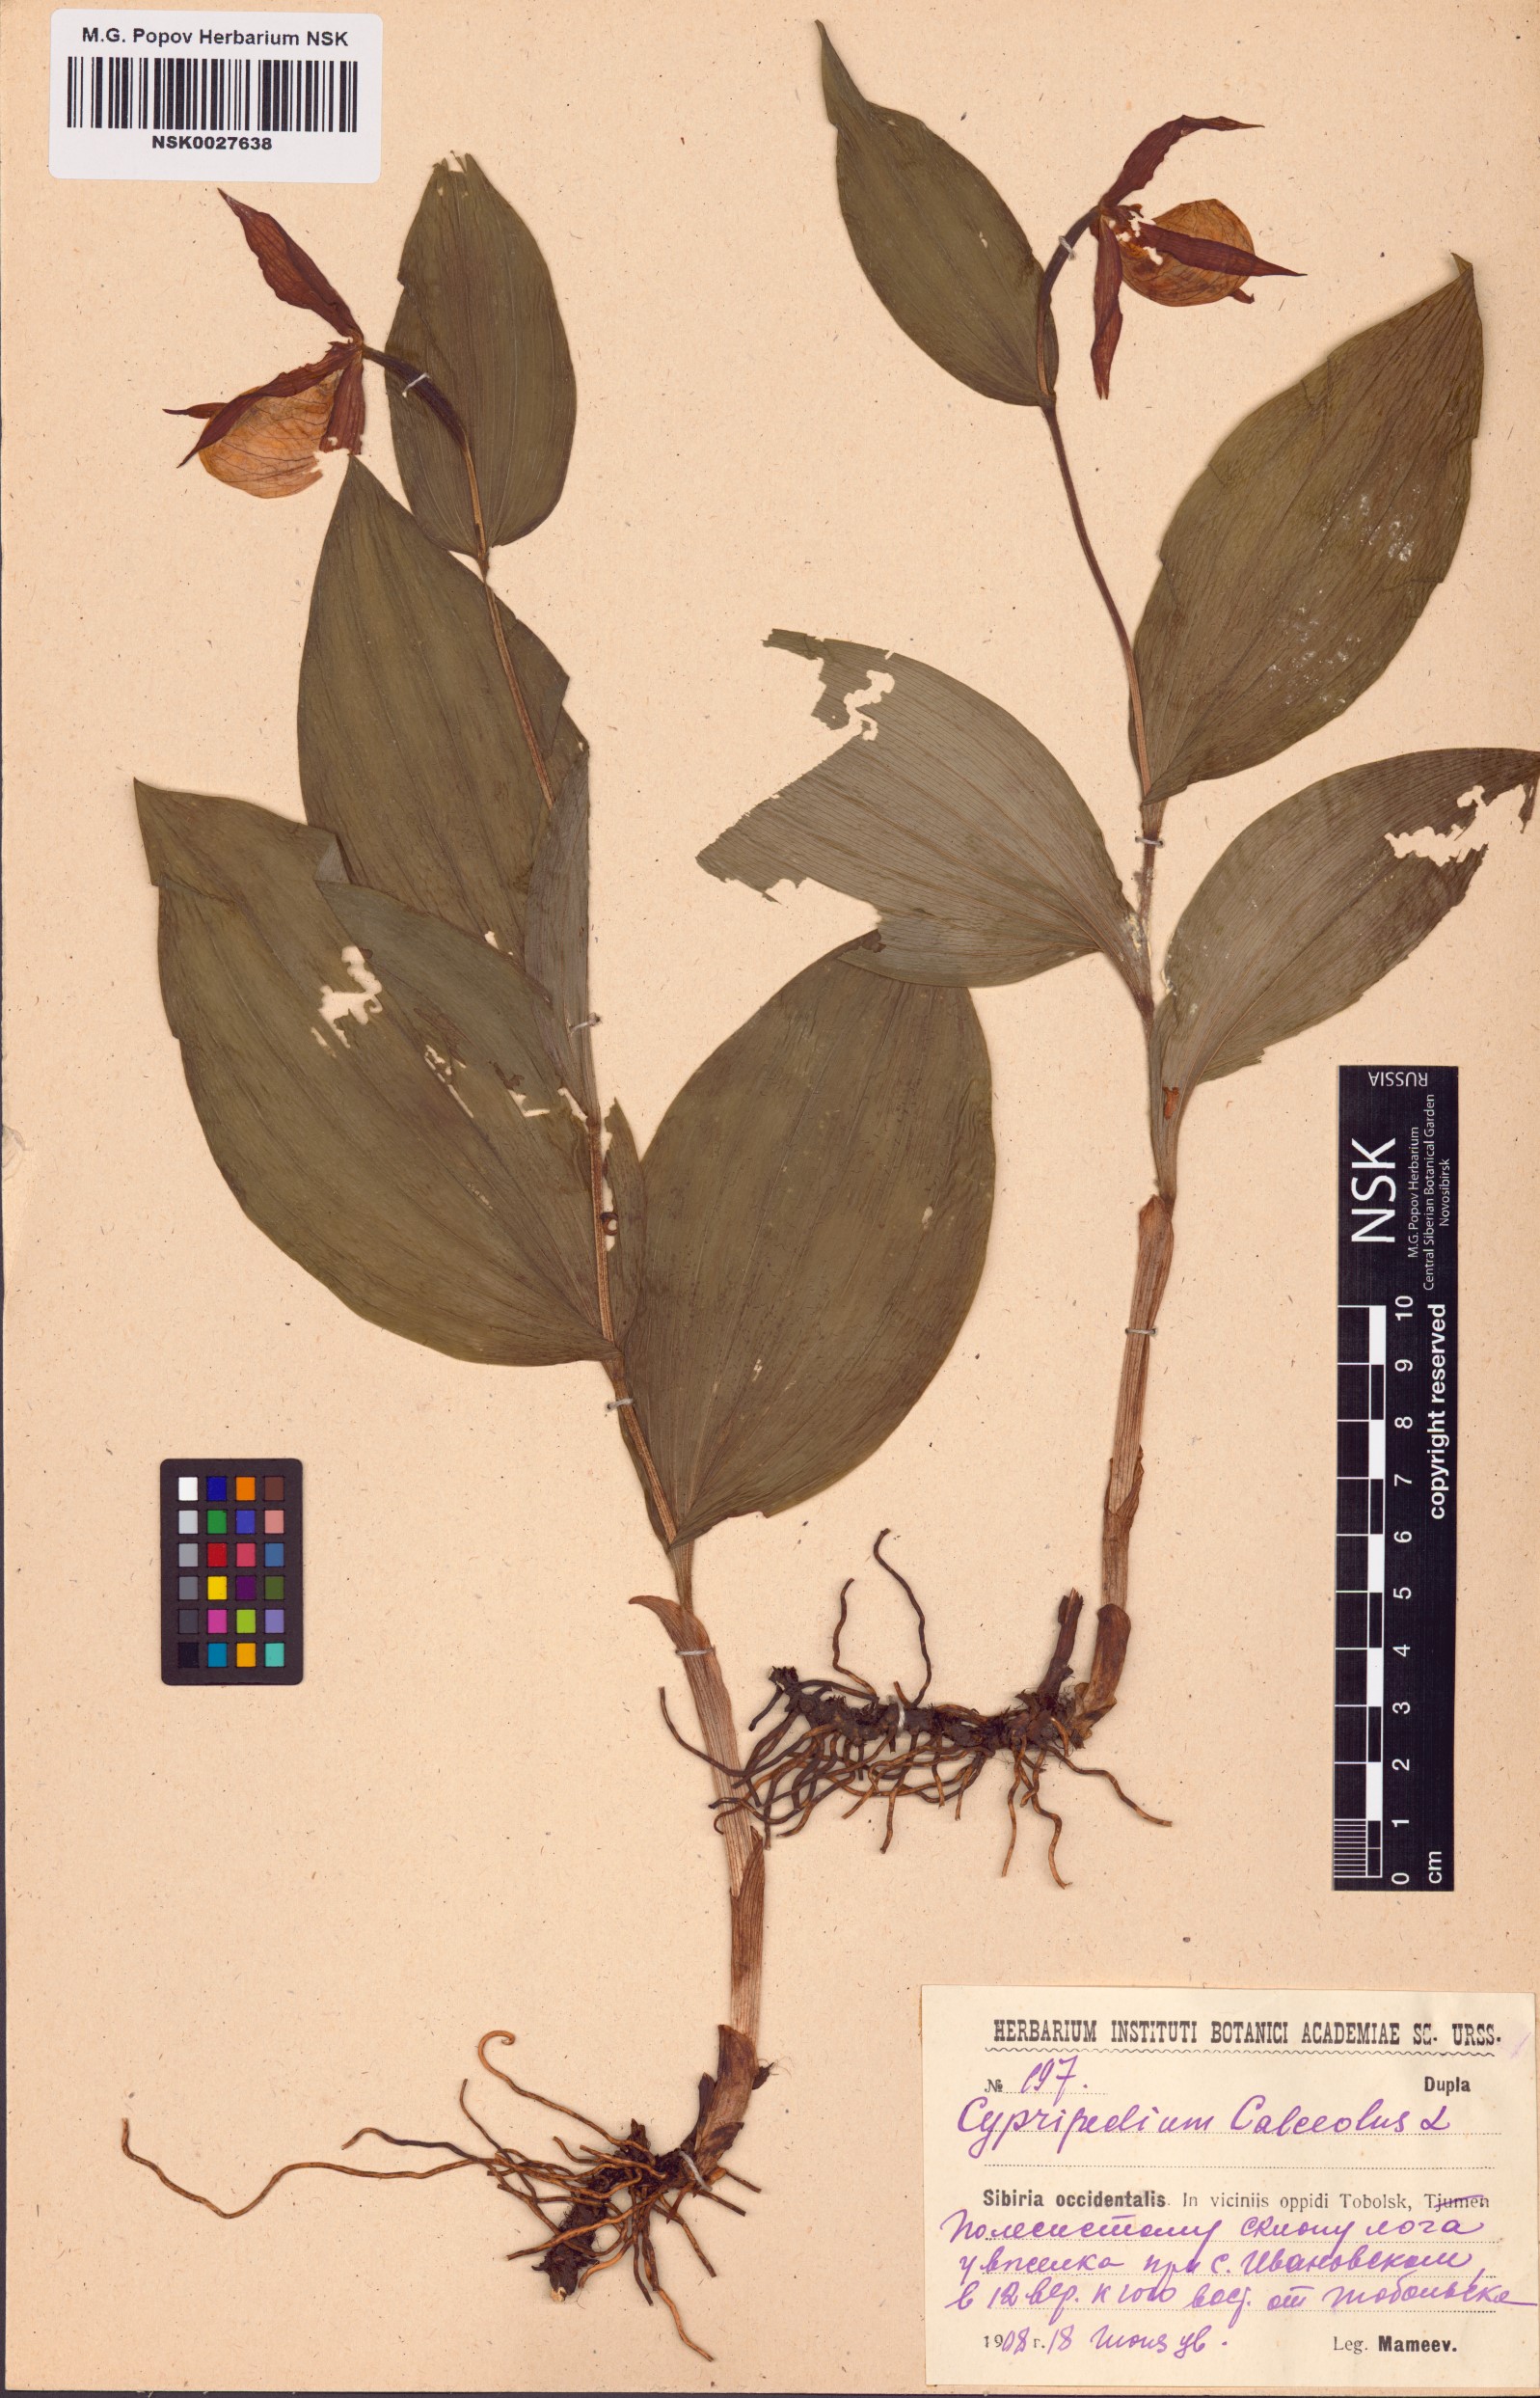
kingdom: Plantae
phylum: Tracheophyta
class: Liliopsida
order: Asparagales
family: Orchidaceae
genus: Cypripedium
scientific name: Cypripedium calceolus
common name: Lady's-slipper
